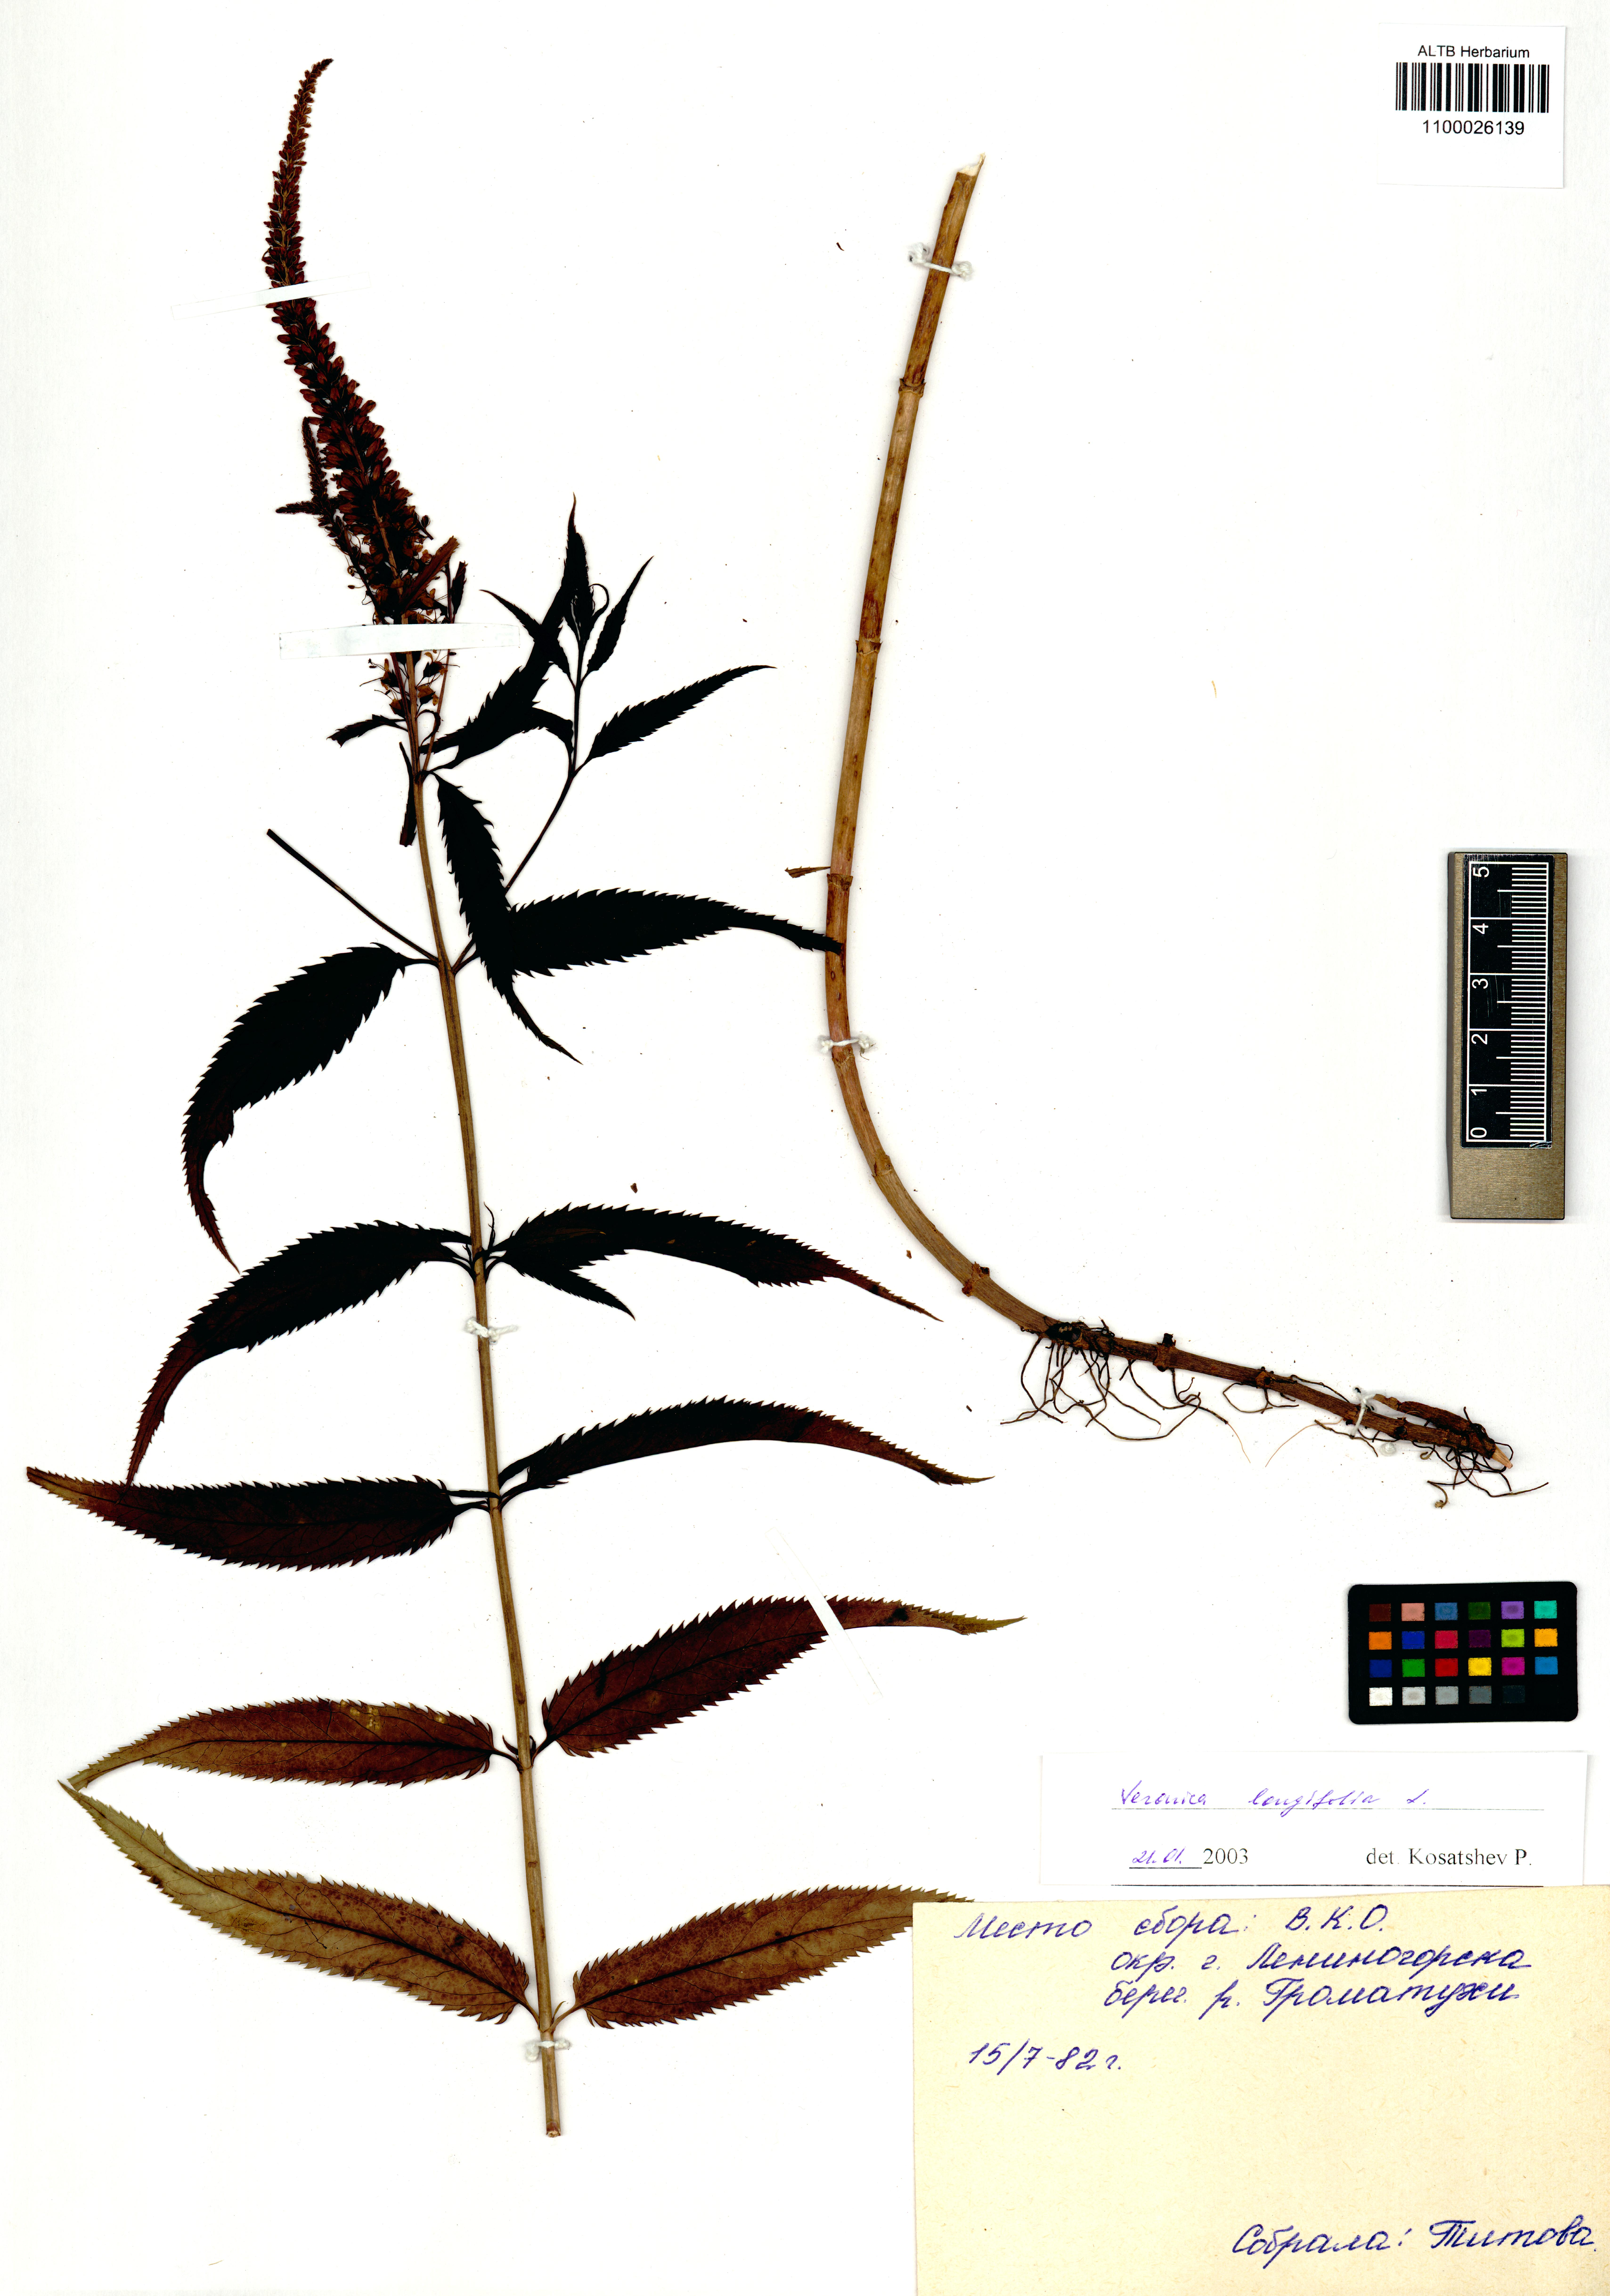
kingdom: Plantae
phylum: Tracheophyta
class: Magnoliopsida
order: Lamiales
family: Plantaginaceae
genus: Veronica
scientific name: Veronica longifolia
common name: Garden speedwell
